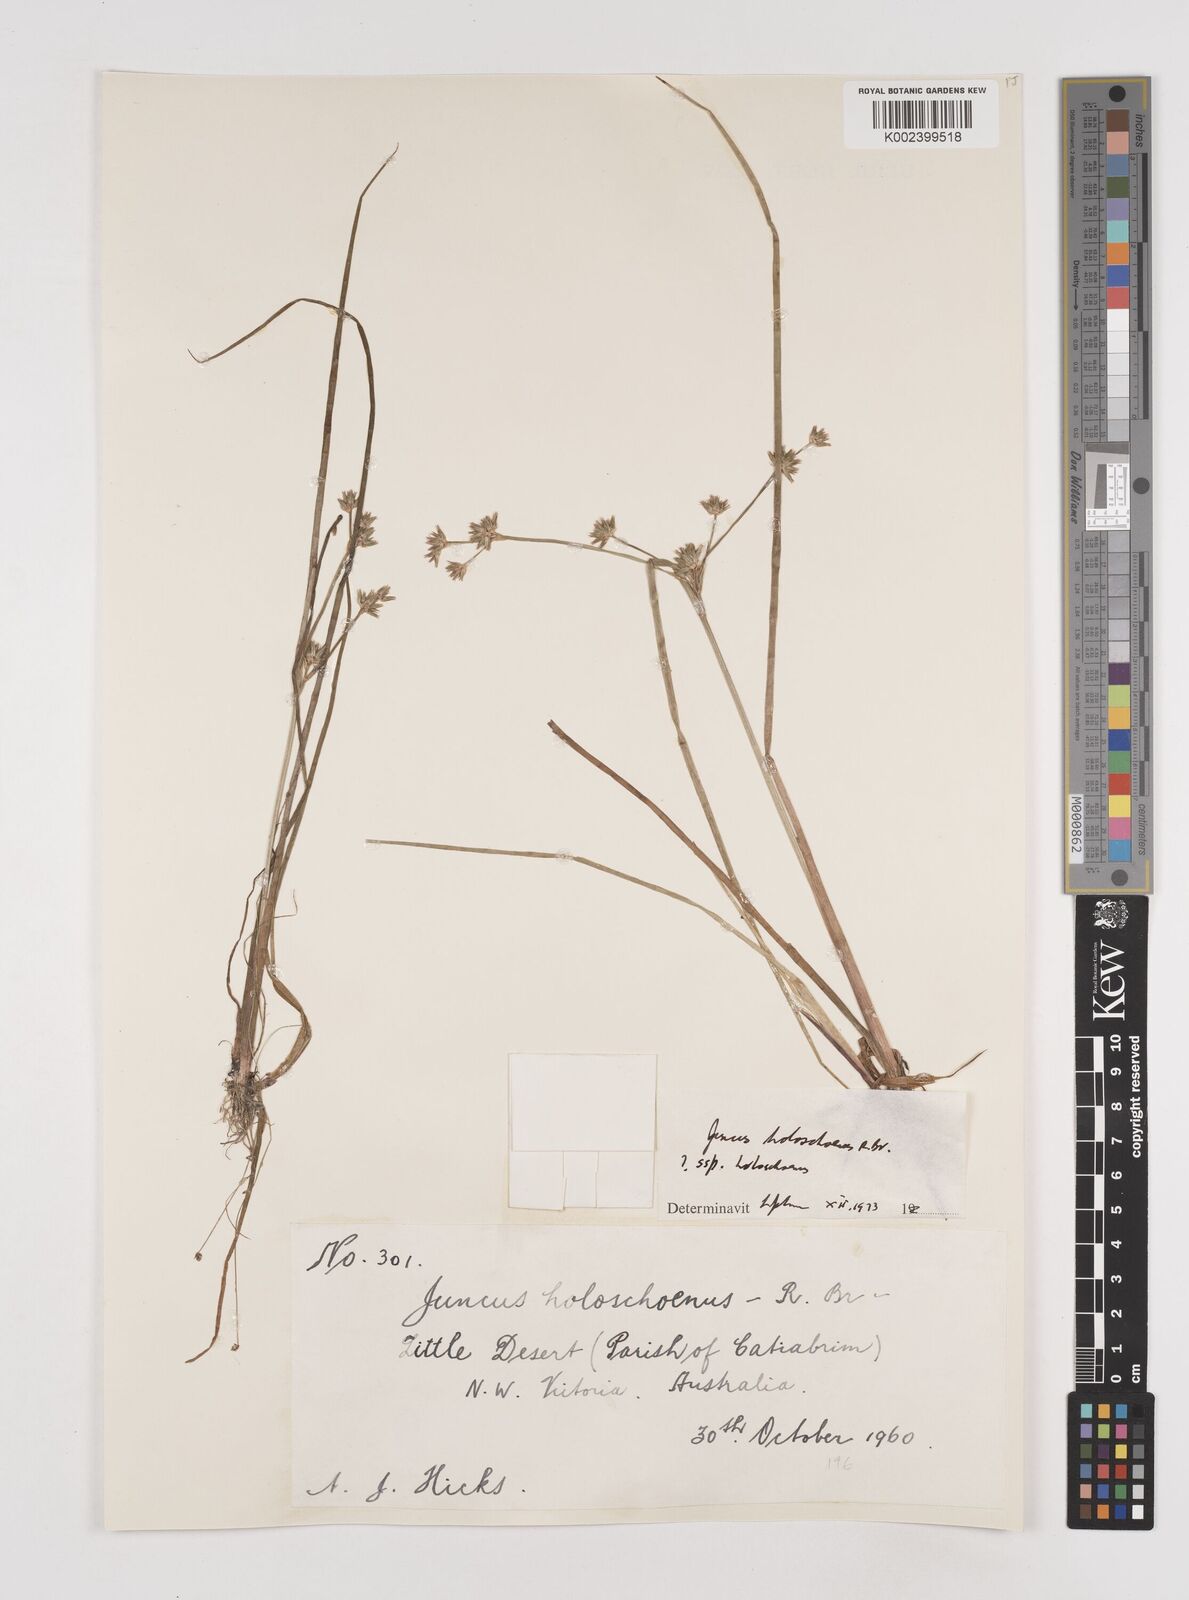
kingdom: Plantae
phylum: Tracheophyta
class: Liliopsida
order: Poales
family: Juncaceae
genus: Juncus
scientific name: Juncus holoschoenus
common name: Joint-leaf rush
